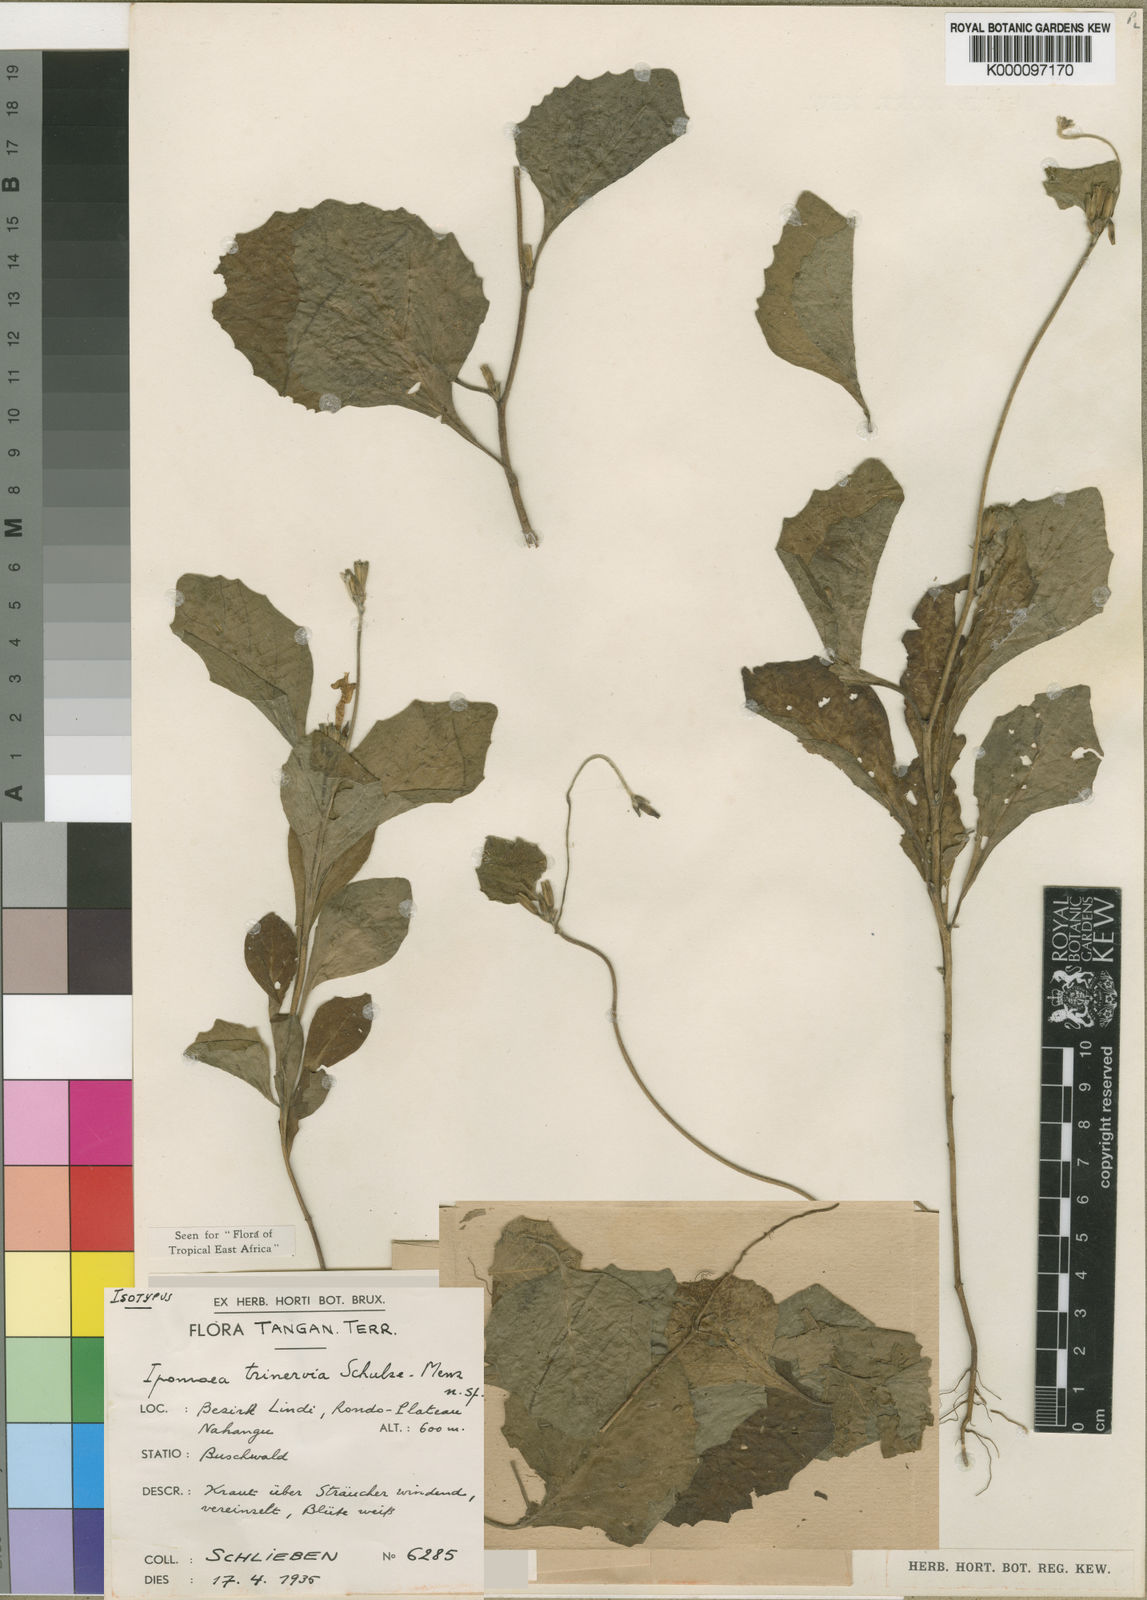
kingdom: Plantae
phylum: Tracheophyta
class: Magnoliopsida
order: Solanales
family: Convolvulaceae
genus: Ipomoea
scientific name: Ipomoea trinervia
